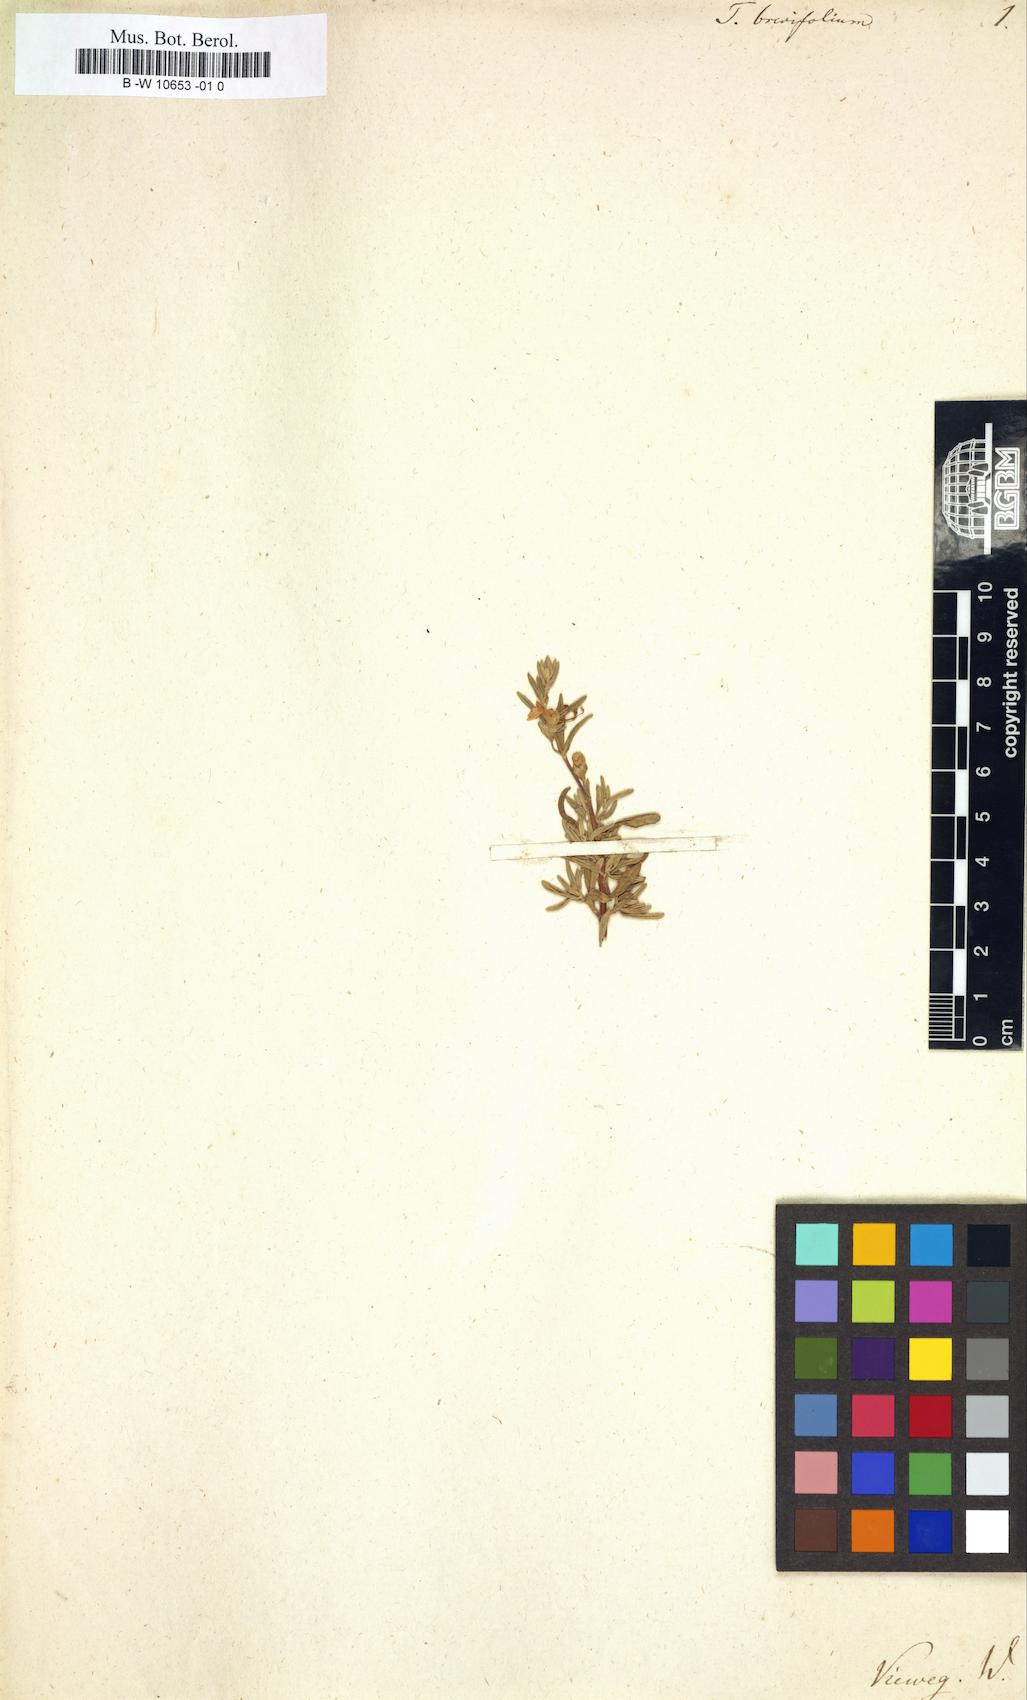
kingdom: Plantae
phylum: Tracheophyta
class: Magnoliopsida
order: Lamiales
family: Lamiaceae
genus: Teucrium
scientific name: Teucrium brevifolium
